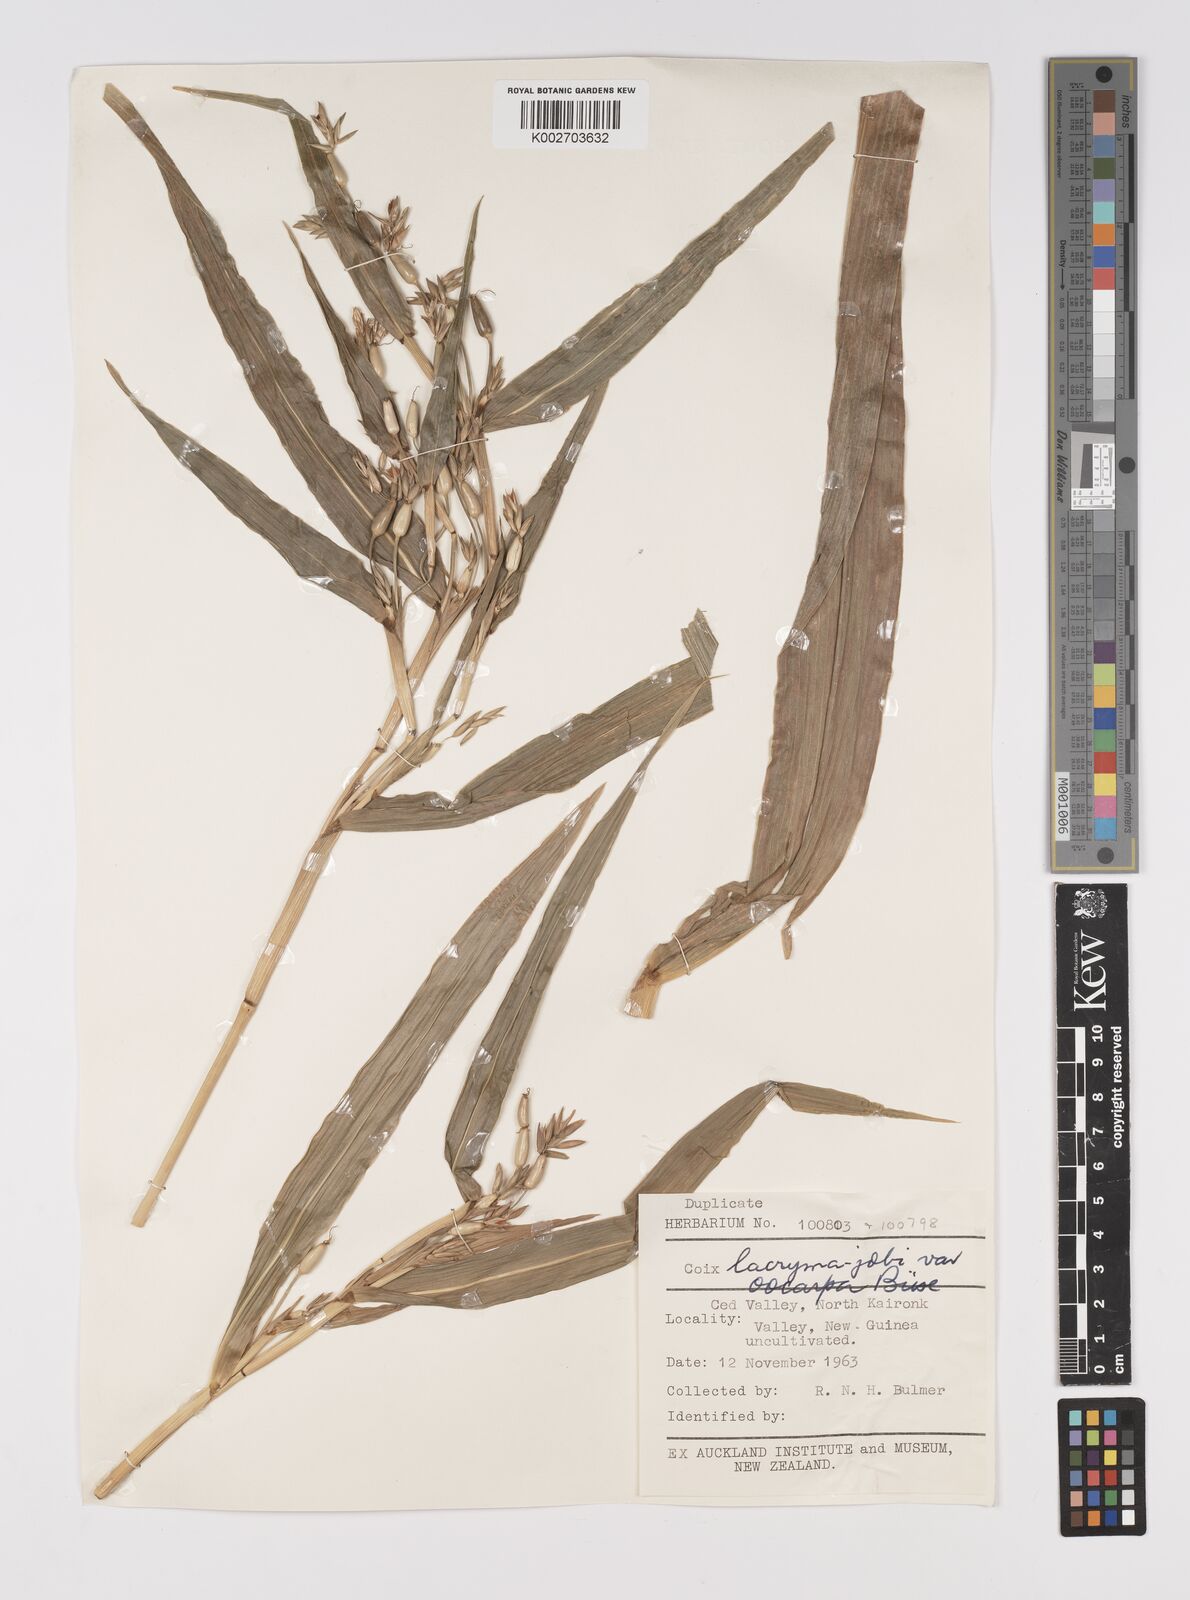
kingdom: Plantae
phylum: Tracheophyta
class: Liliopsida
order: Poales
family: Poaceae
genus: Coix
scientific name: Coix lacryma-jobi
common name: Job's tears
